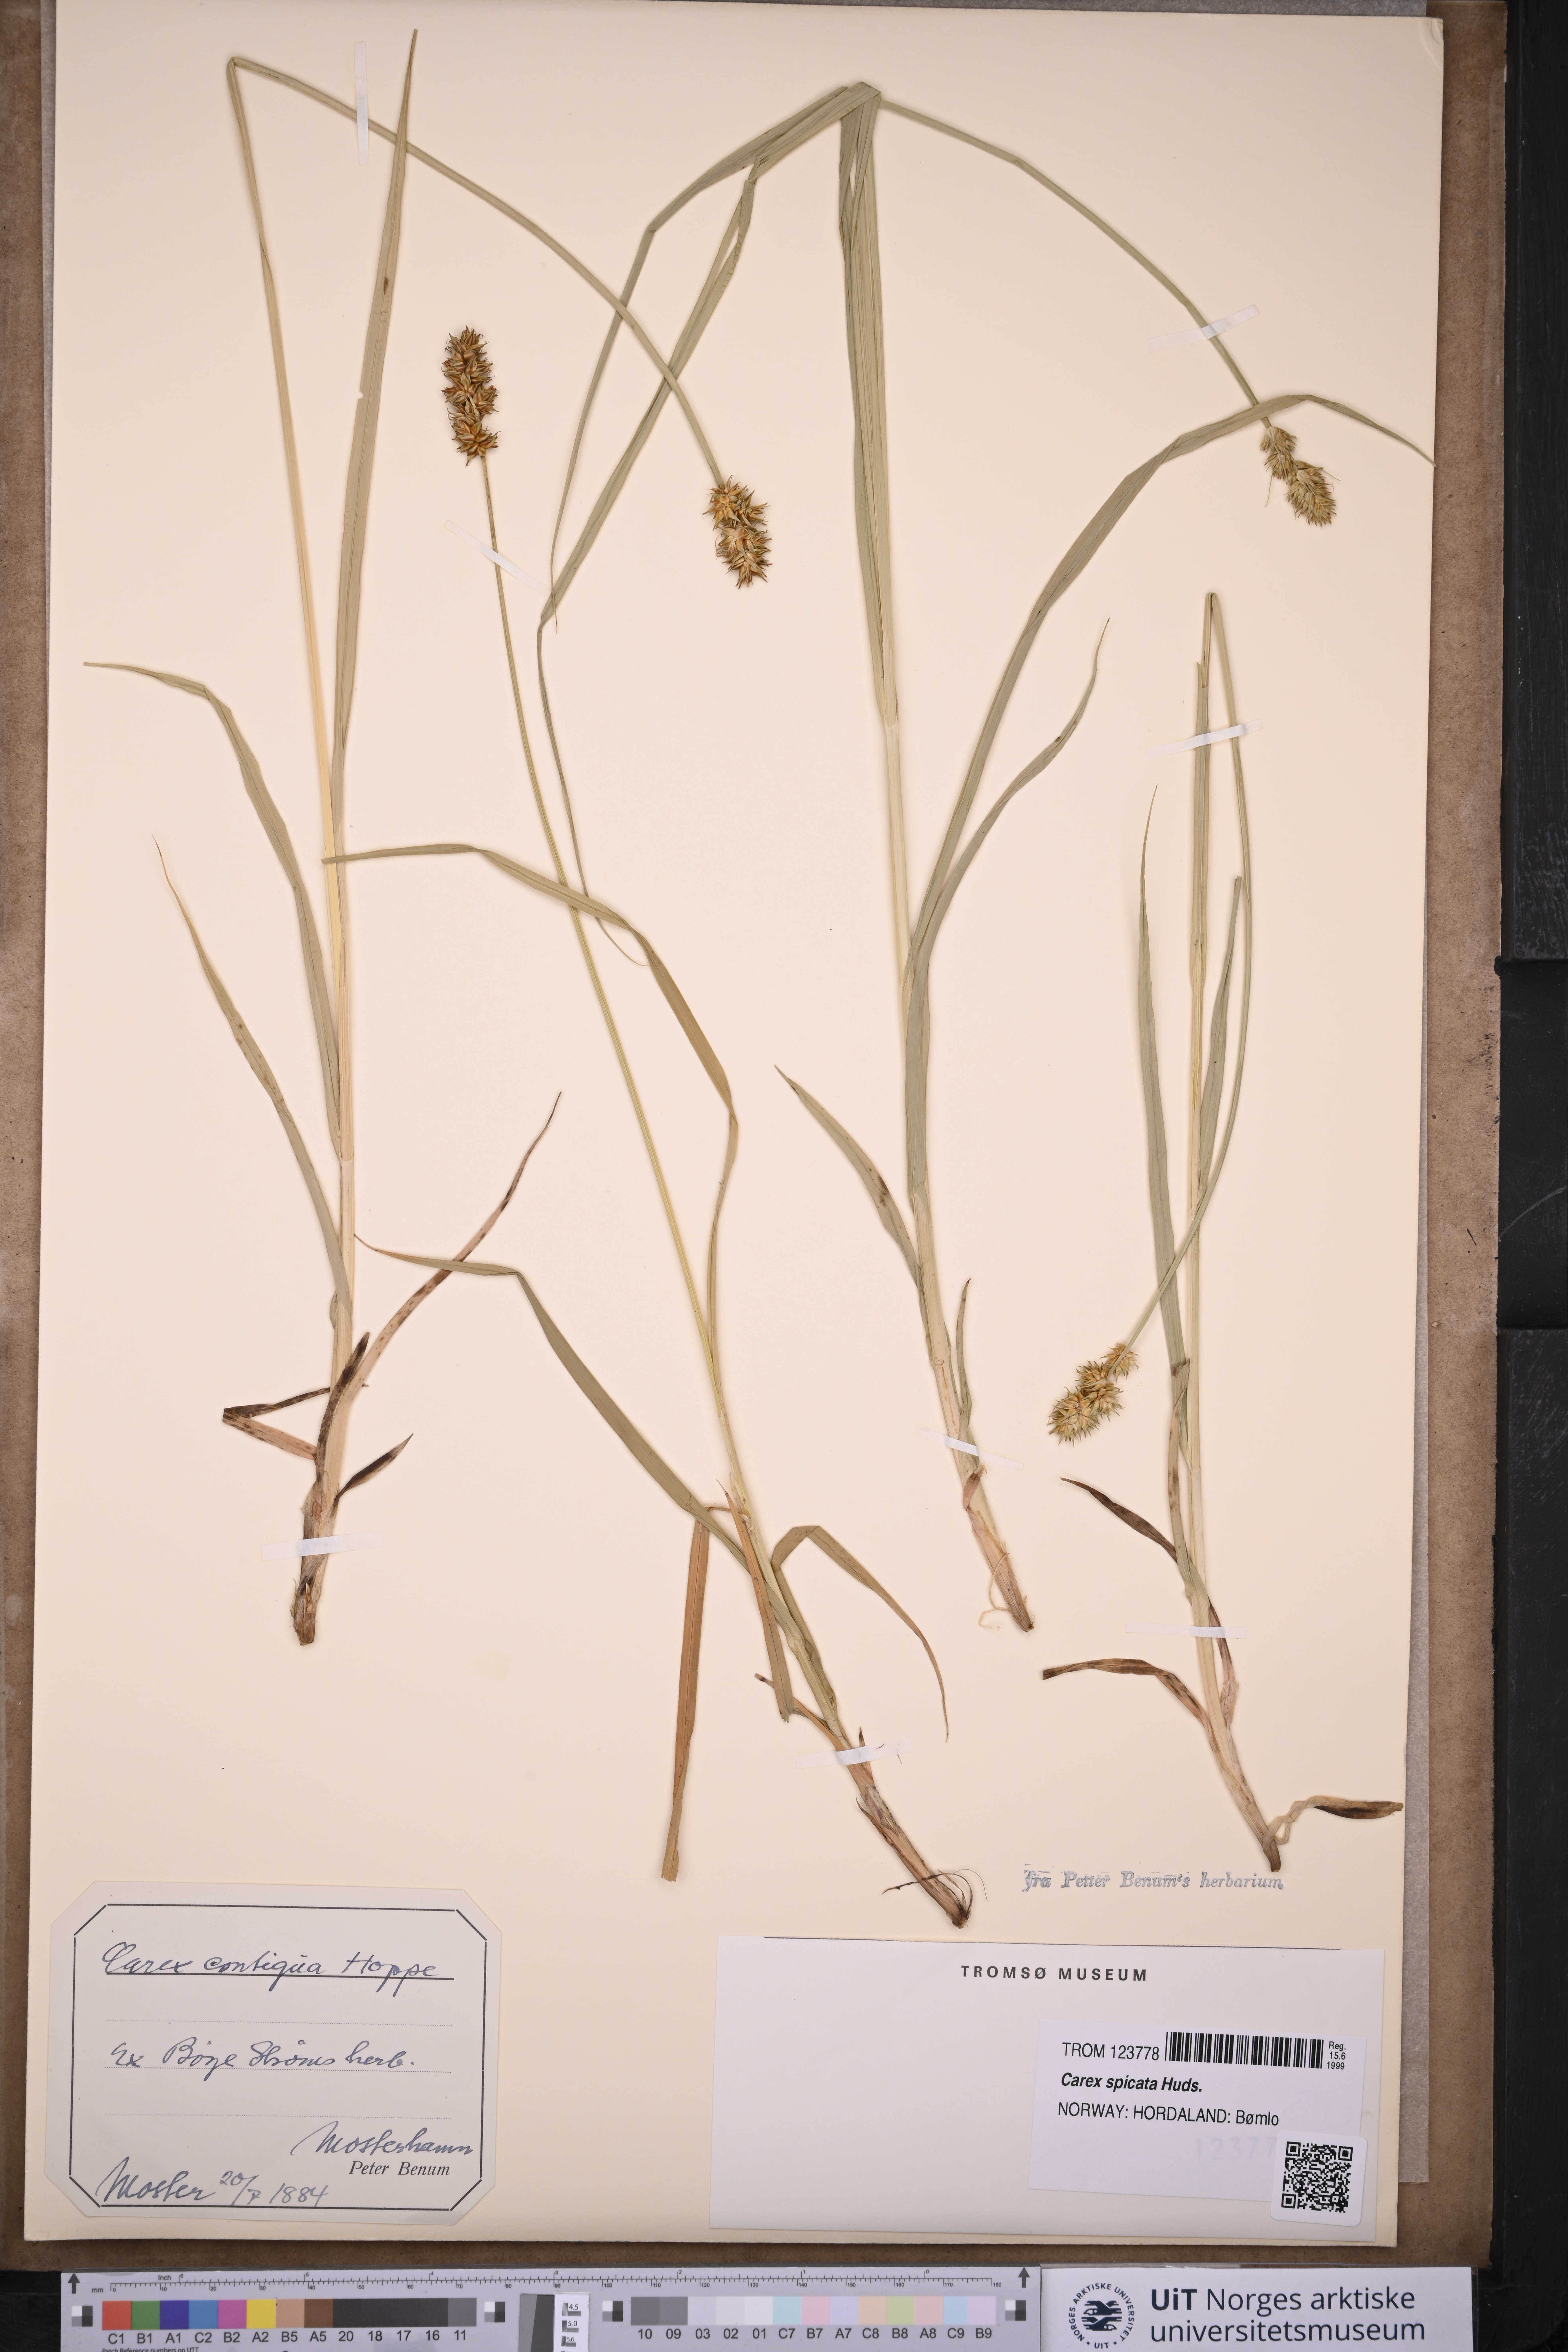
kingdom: Plantae
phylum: Tracheophyta
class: Liliopsida
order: Poales
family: Cyperaceae
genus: Carex
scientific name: Carex spicata
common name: Spiked sedge
